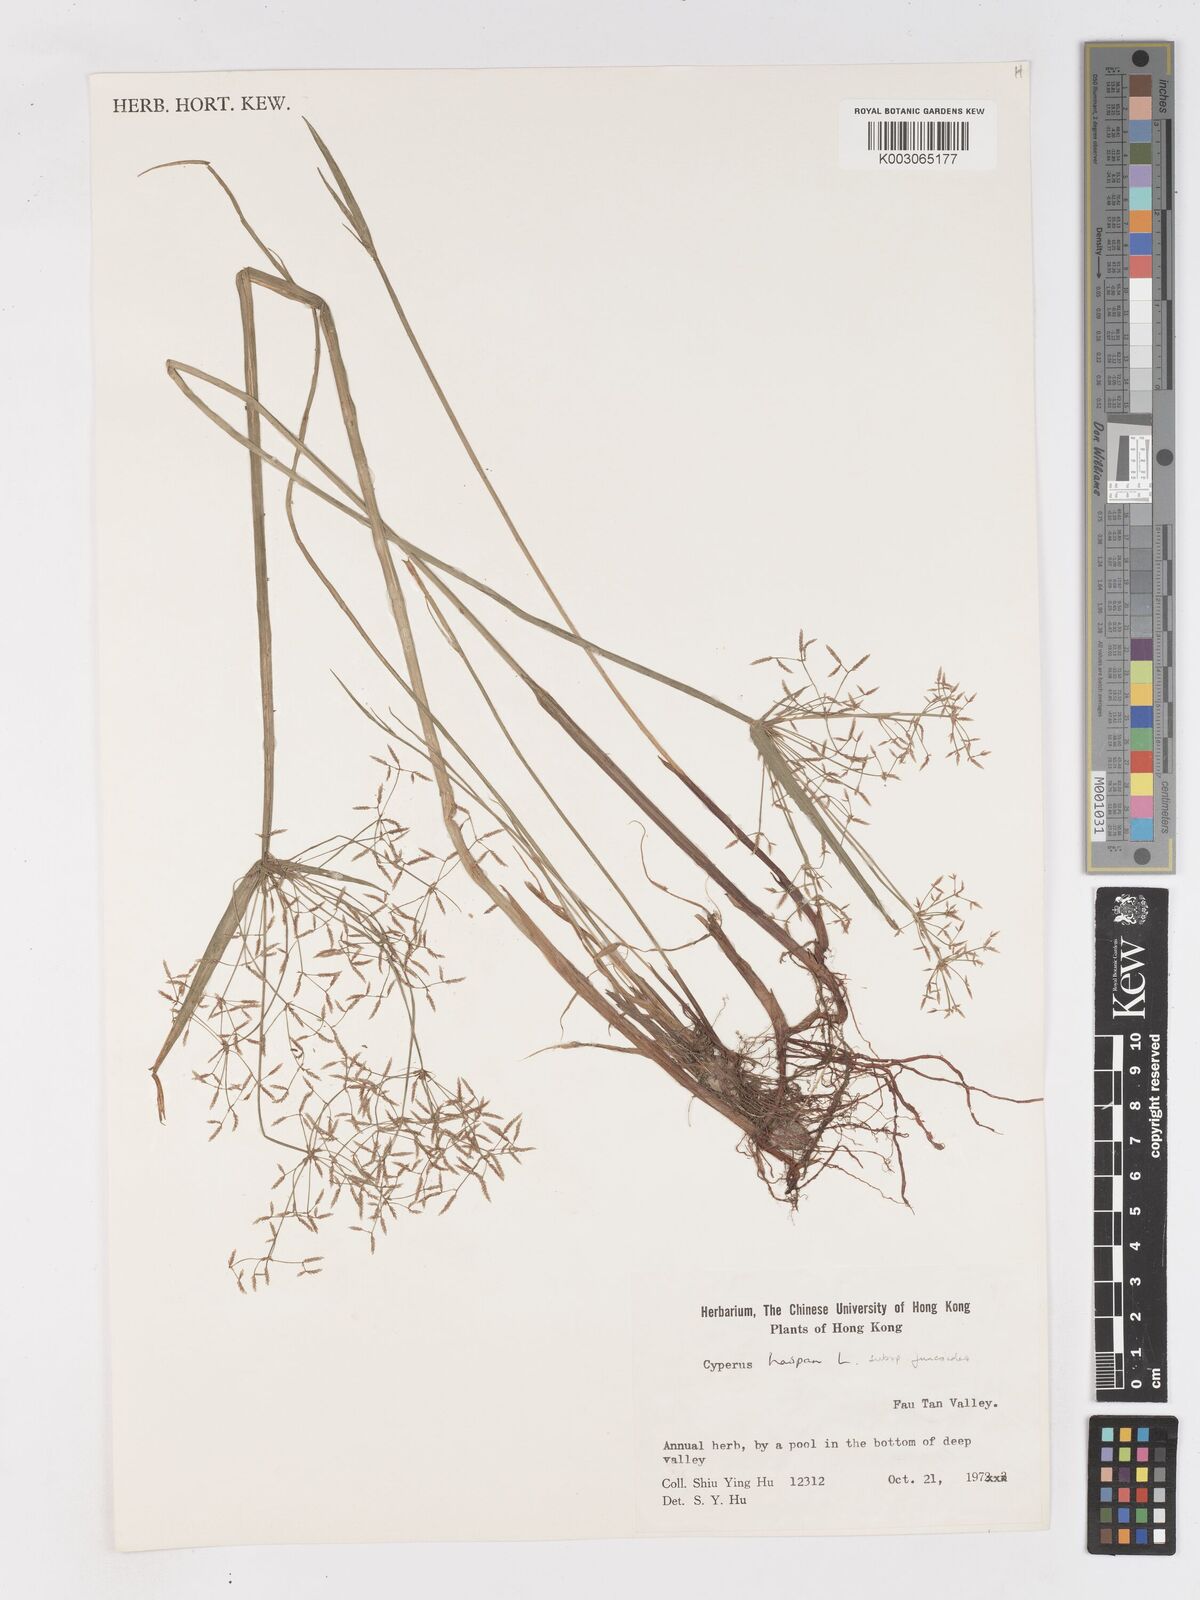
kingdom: Plantae
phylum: Tracheophyta
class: Liliopsida
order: Poales
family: Cyperaceae
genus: Cyperus
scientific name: Cyperus haspan
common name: Haspan flatsedge
